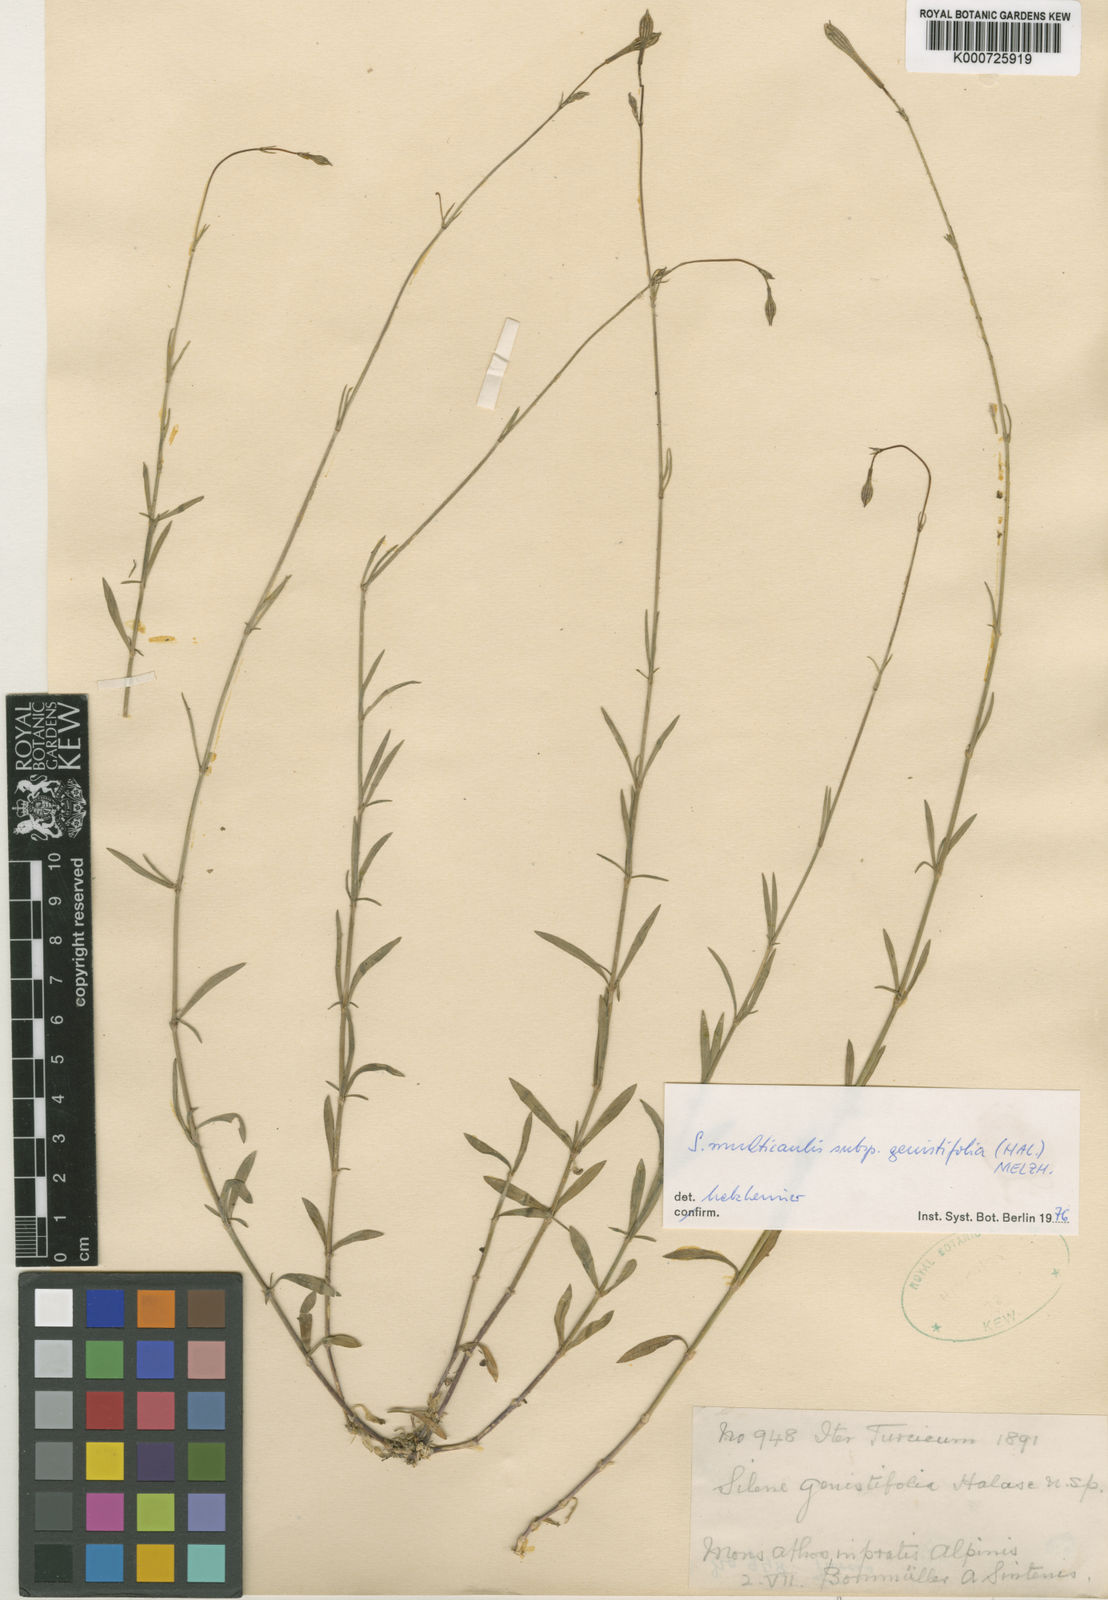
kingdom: Plantae
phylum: Tracheophyta
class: Magnoliopsida
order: Caryophyllales
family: Caryophyllaceae
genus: Silene
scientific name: Silene
